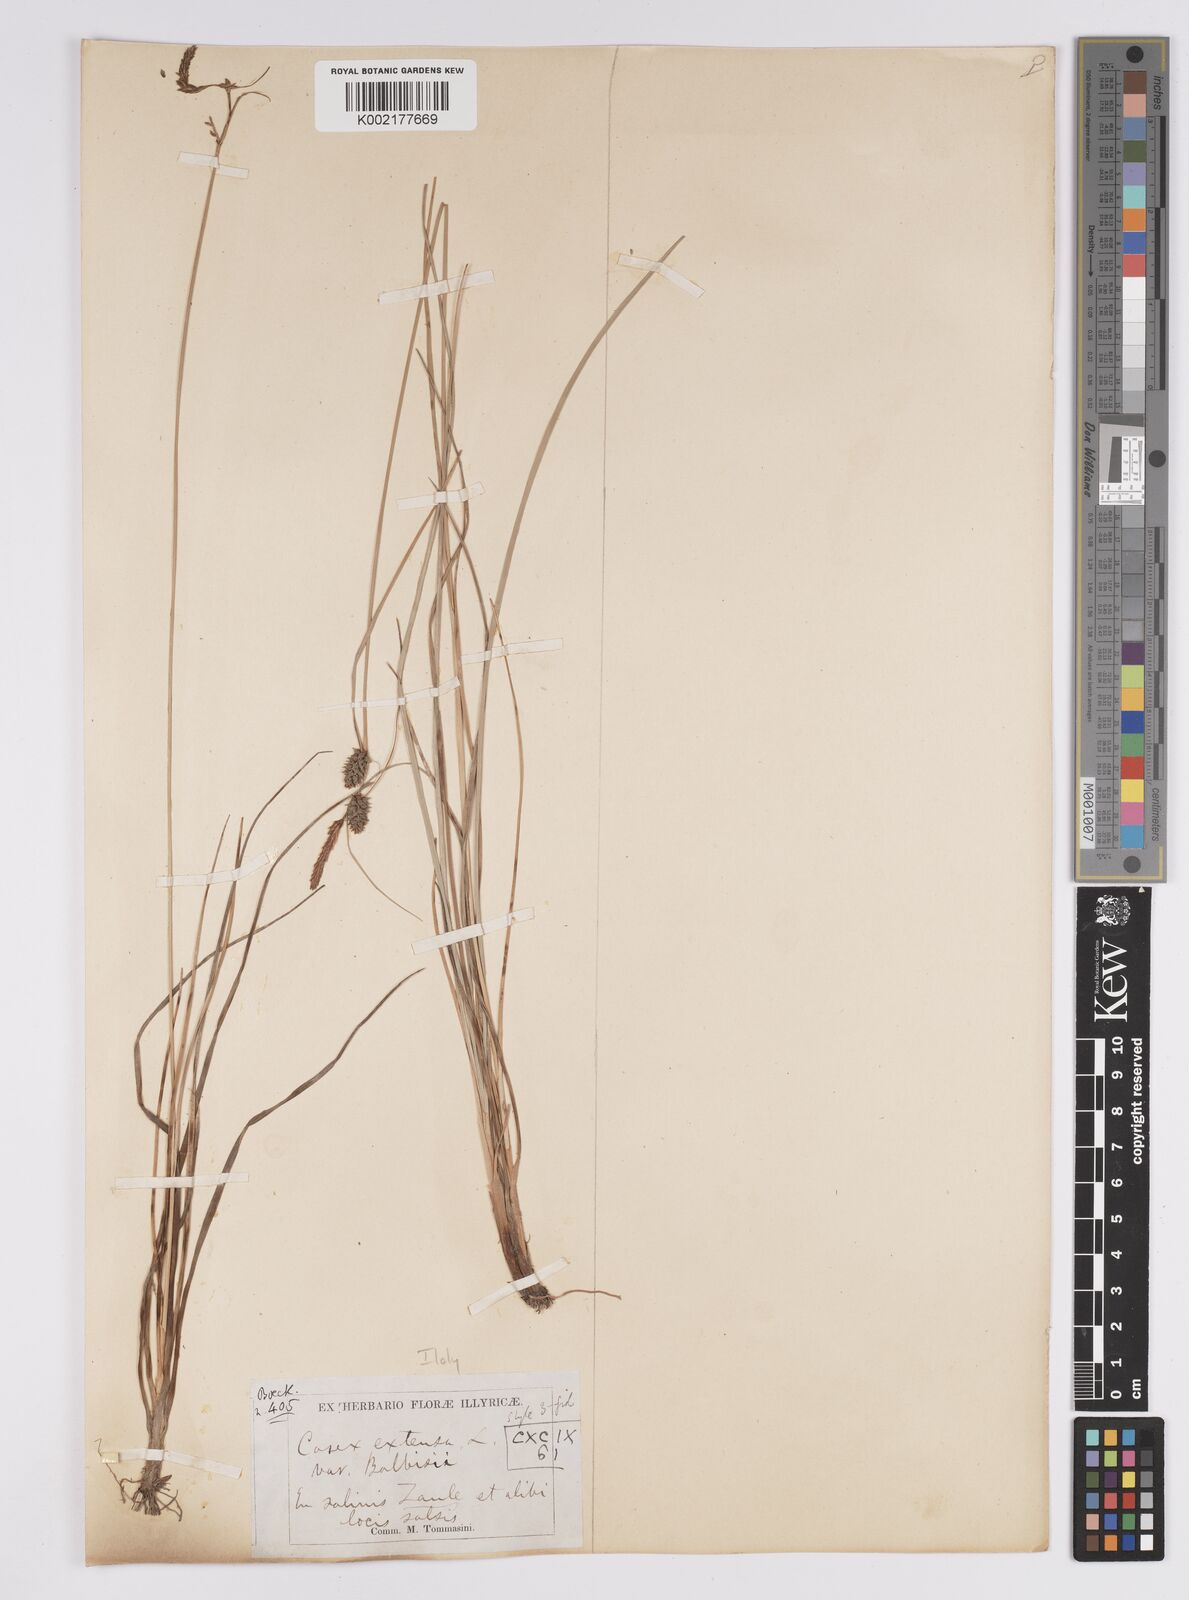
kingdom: Plantae
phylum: Tracheophyta
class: Liliopsida
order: Poales
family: Cyperaceae
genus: Carex
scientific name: Carex extensa
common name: Long-bracted sedge
